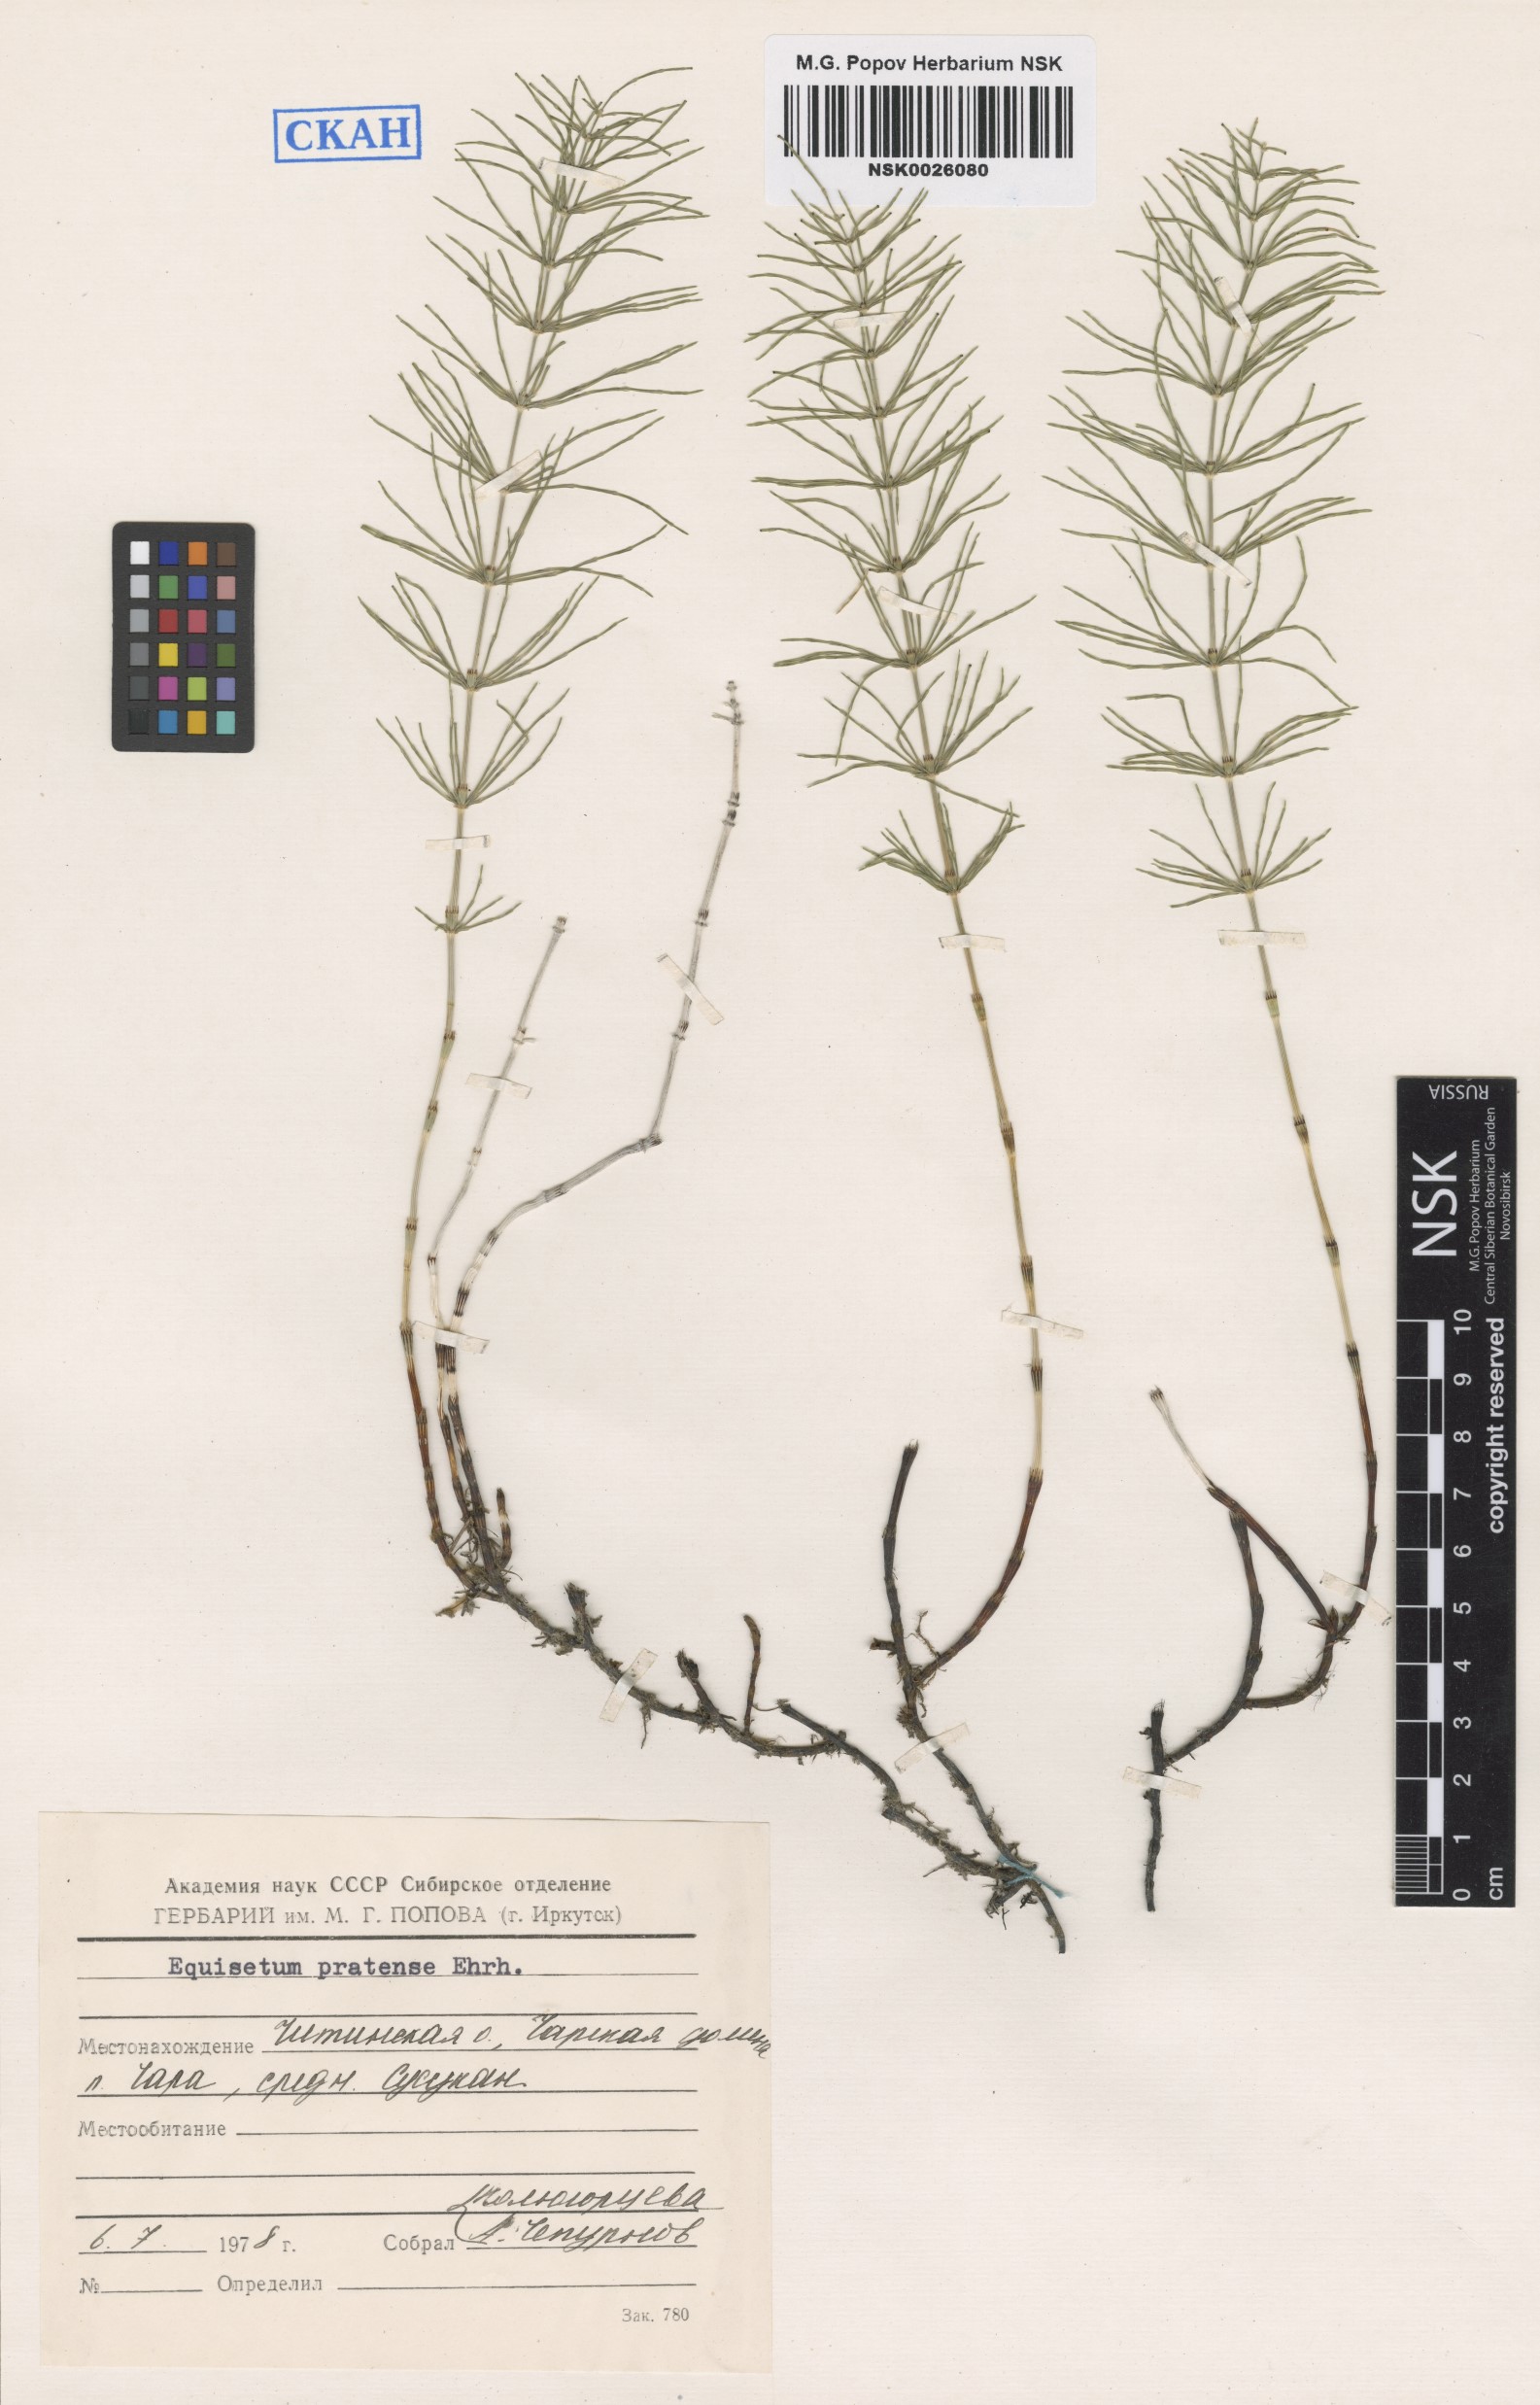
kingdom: Plantae
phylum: Tracheophyta
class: Polypodiopsida
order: Equisetales
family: Equisetaceae
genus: Equisetum
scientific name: Equisetum pratense
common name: Meadow horsetail
